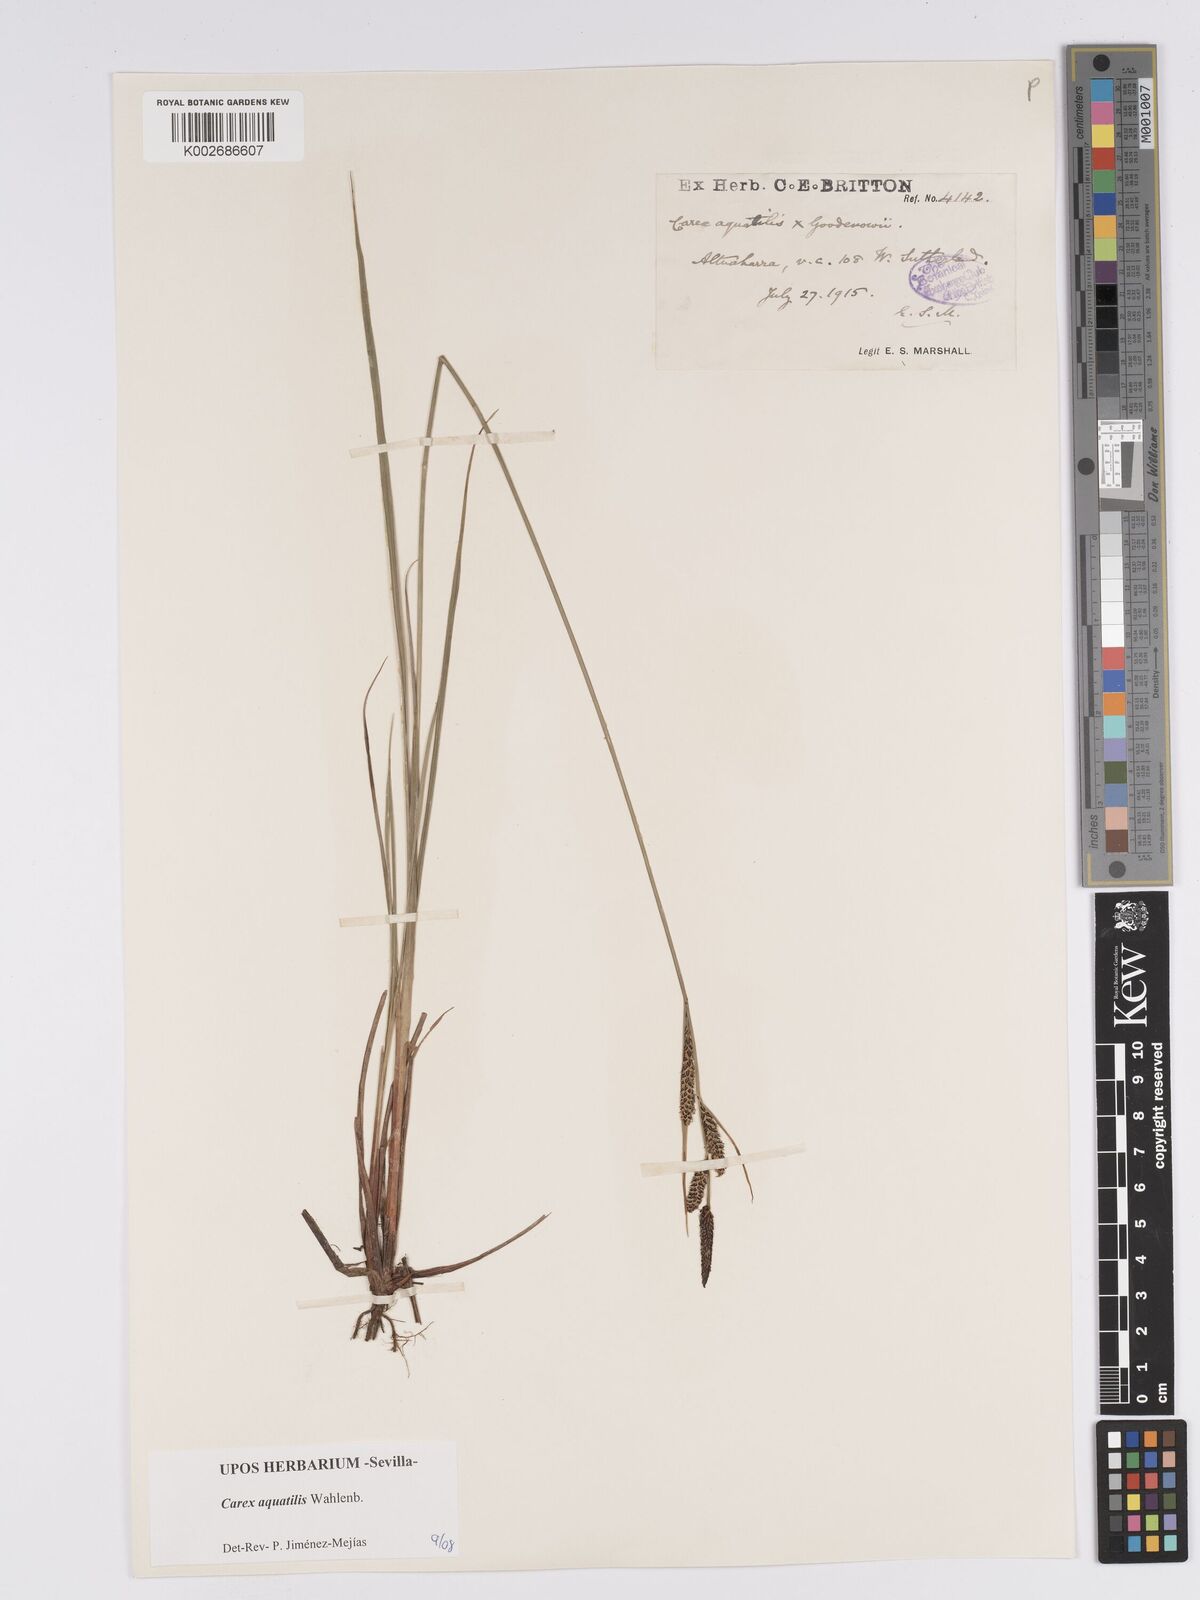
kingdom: Plantae
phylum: Tracheophyta
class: Liliopsida
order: Poales
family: Cyperaceae
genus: Carex
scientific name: Carex aquatilis
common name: Water sedge
